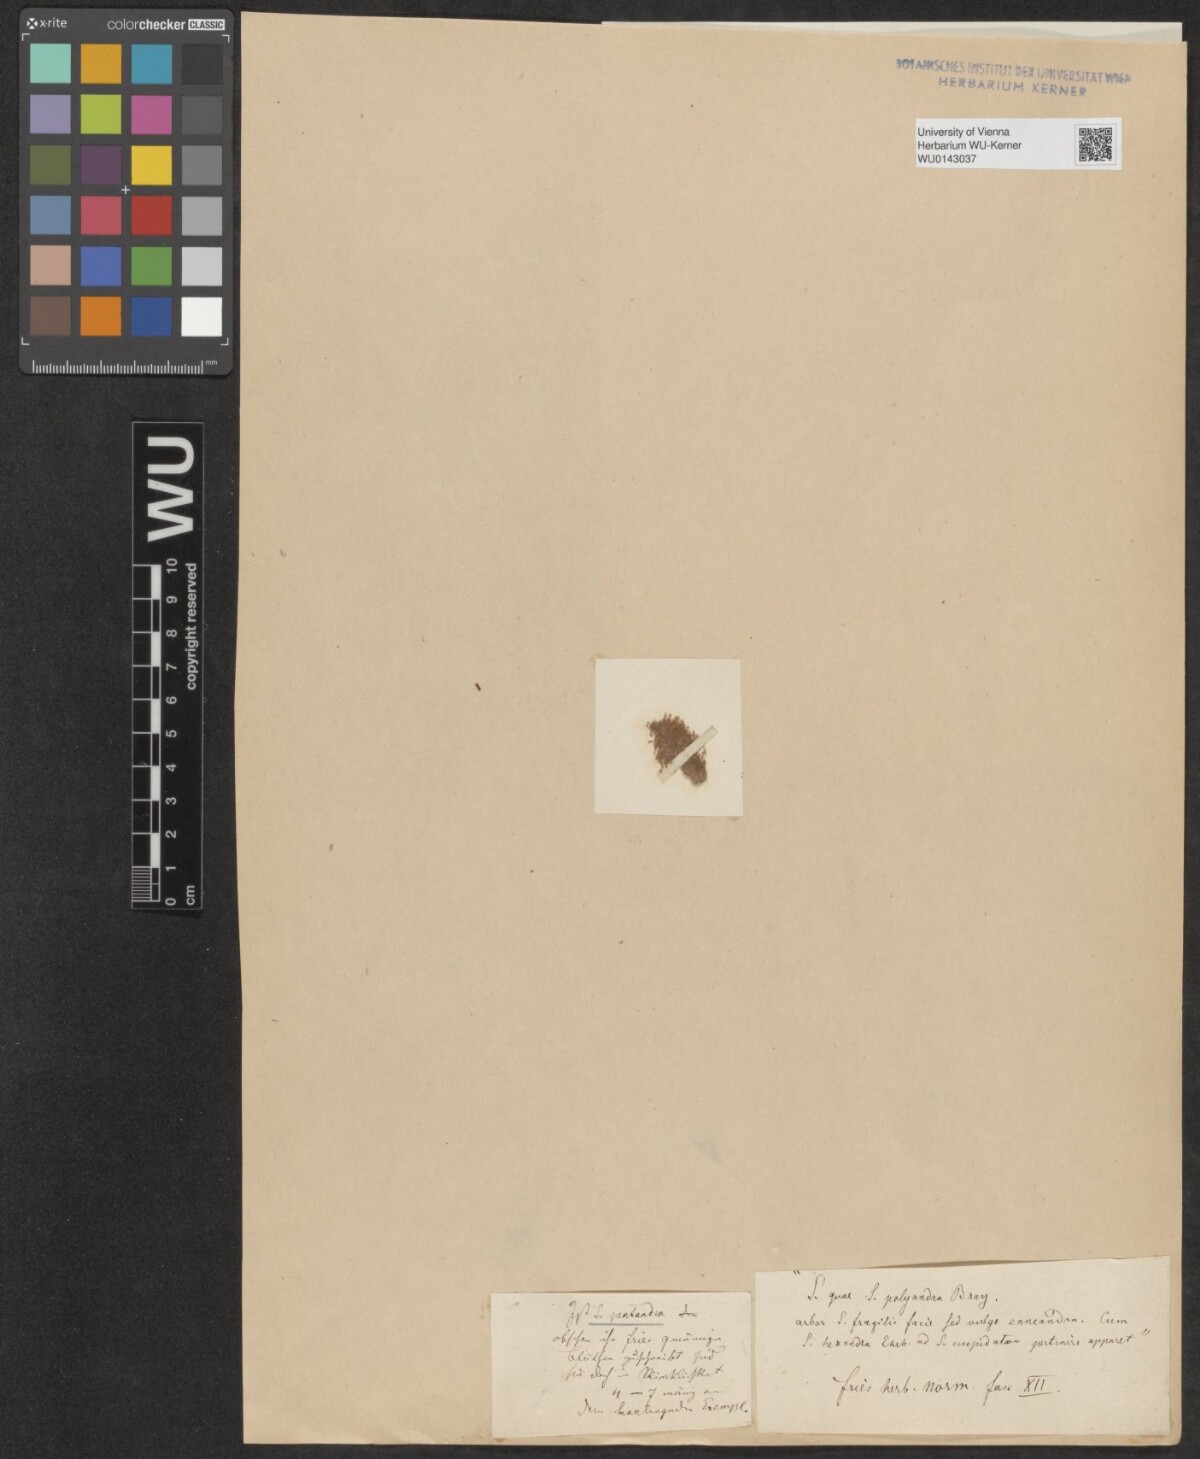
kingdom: Plantae
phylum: Tracheophyta
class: Magnoliopsida
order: Malpighiales
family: Salicaceae
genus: Salix
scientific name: Salix pentandra
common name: Bay willow
